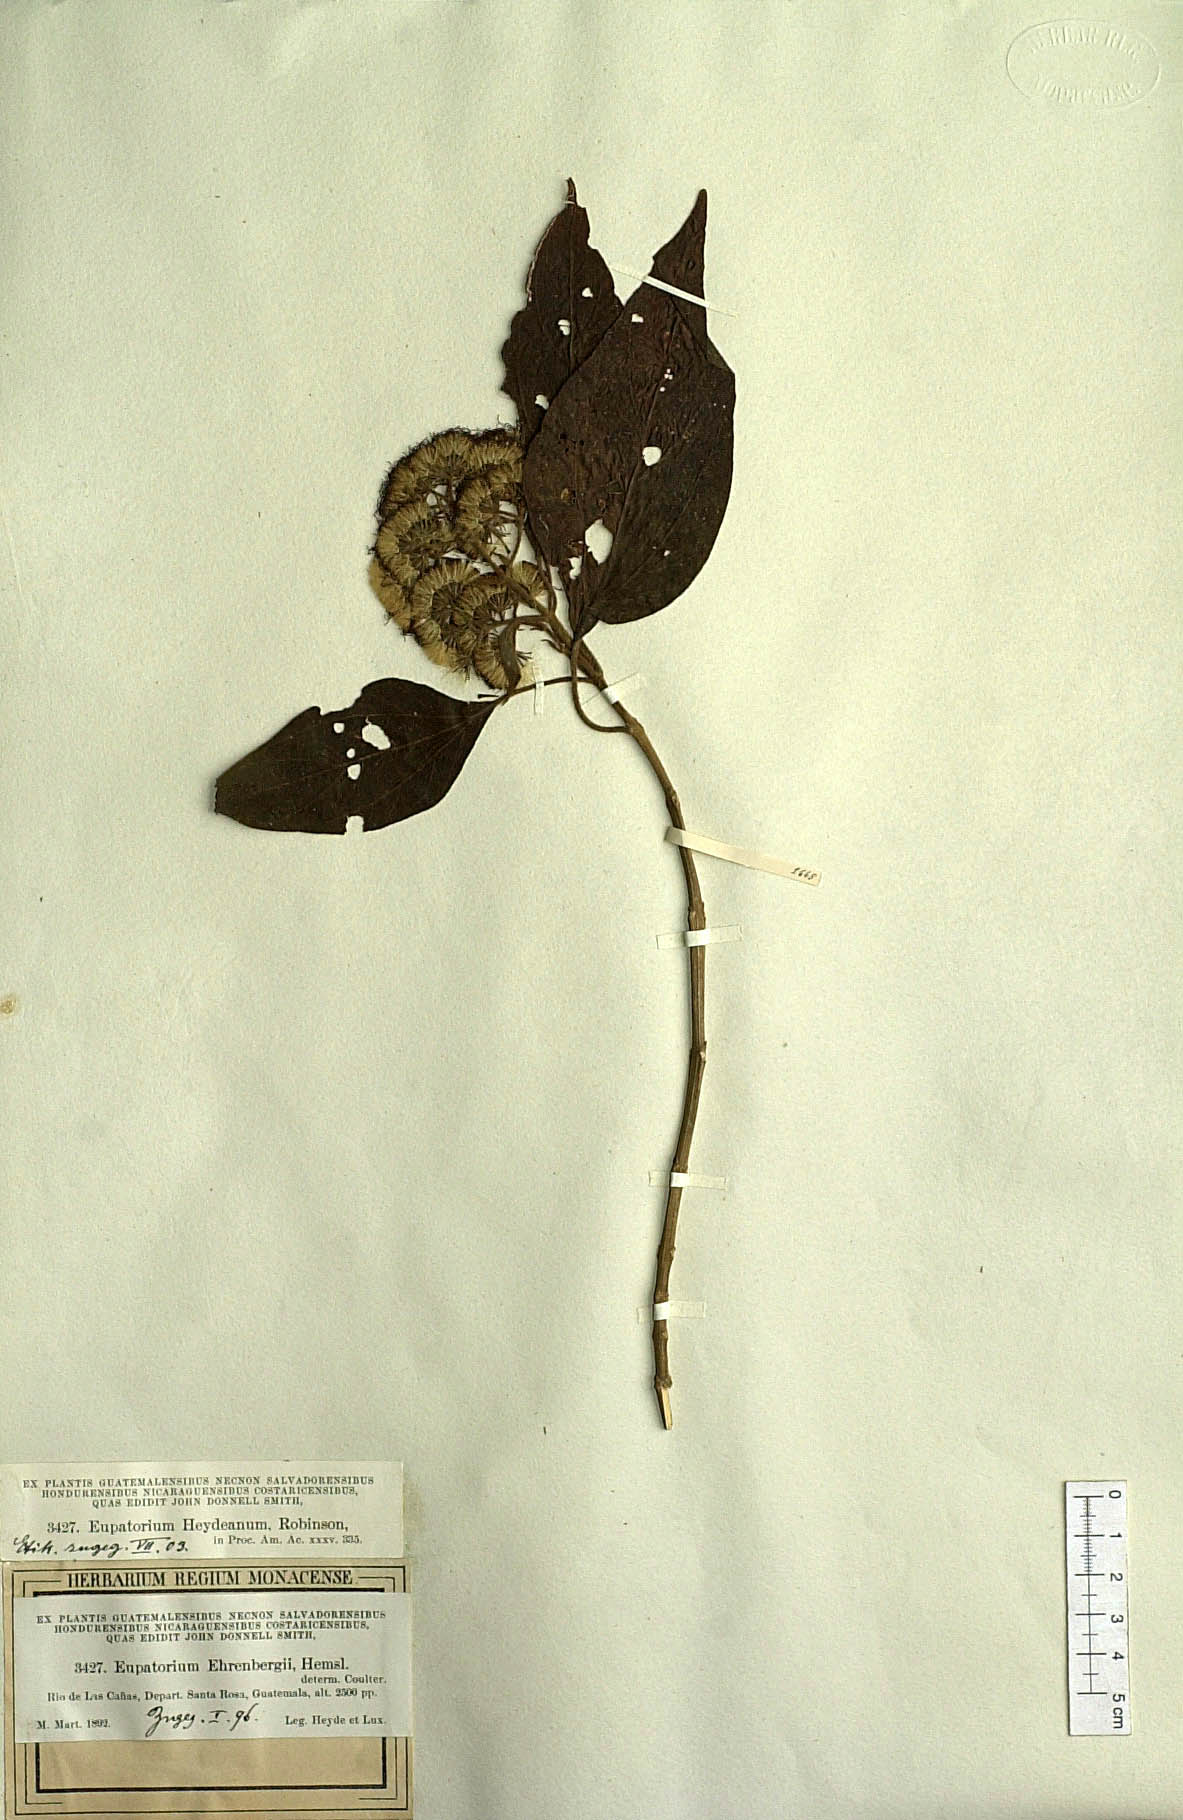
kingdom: Plantae
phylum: Tracheophyta
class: Magnoliopsida
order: Asterales
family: Asteraceae
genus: Bartlettina
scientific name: Bartlettina heydeana
